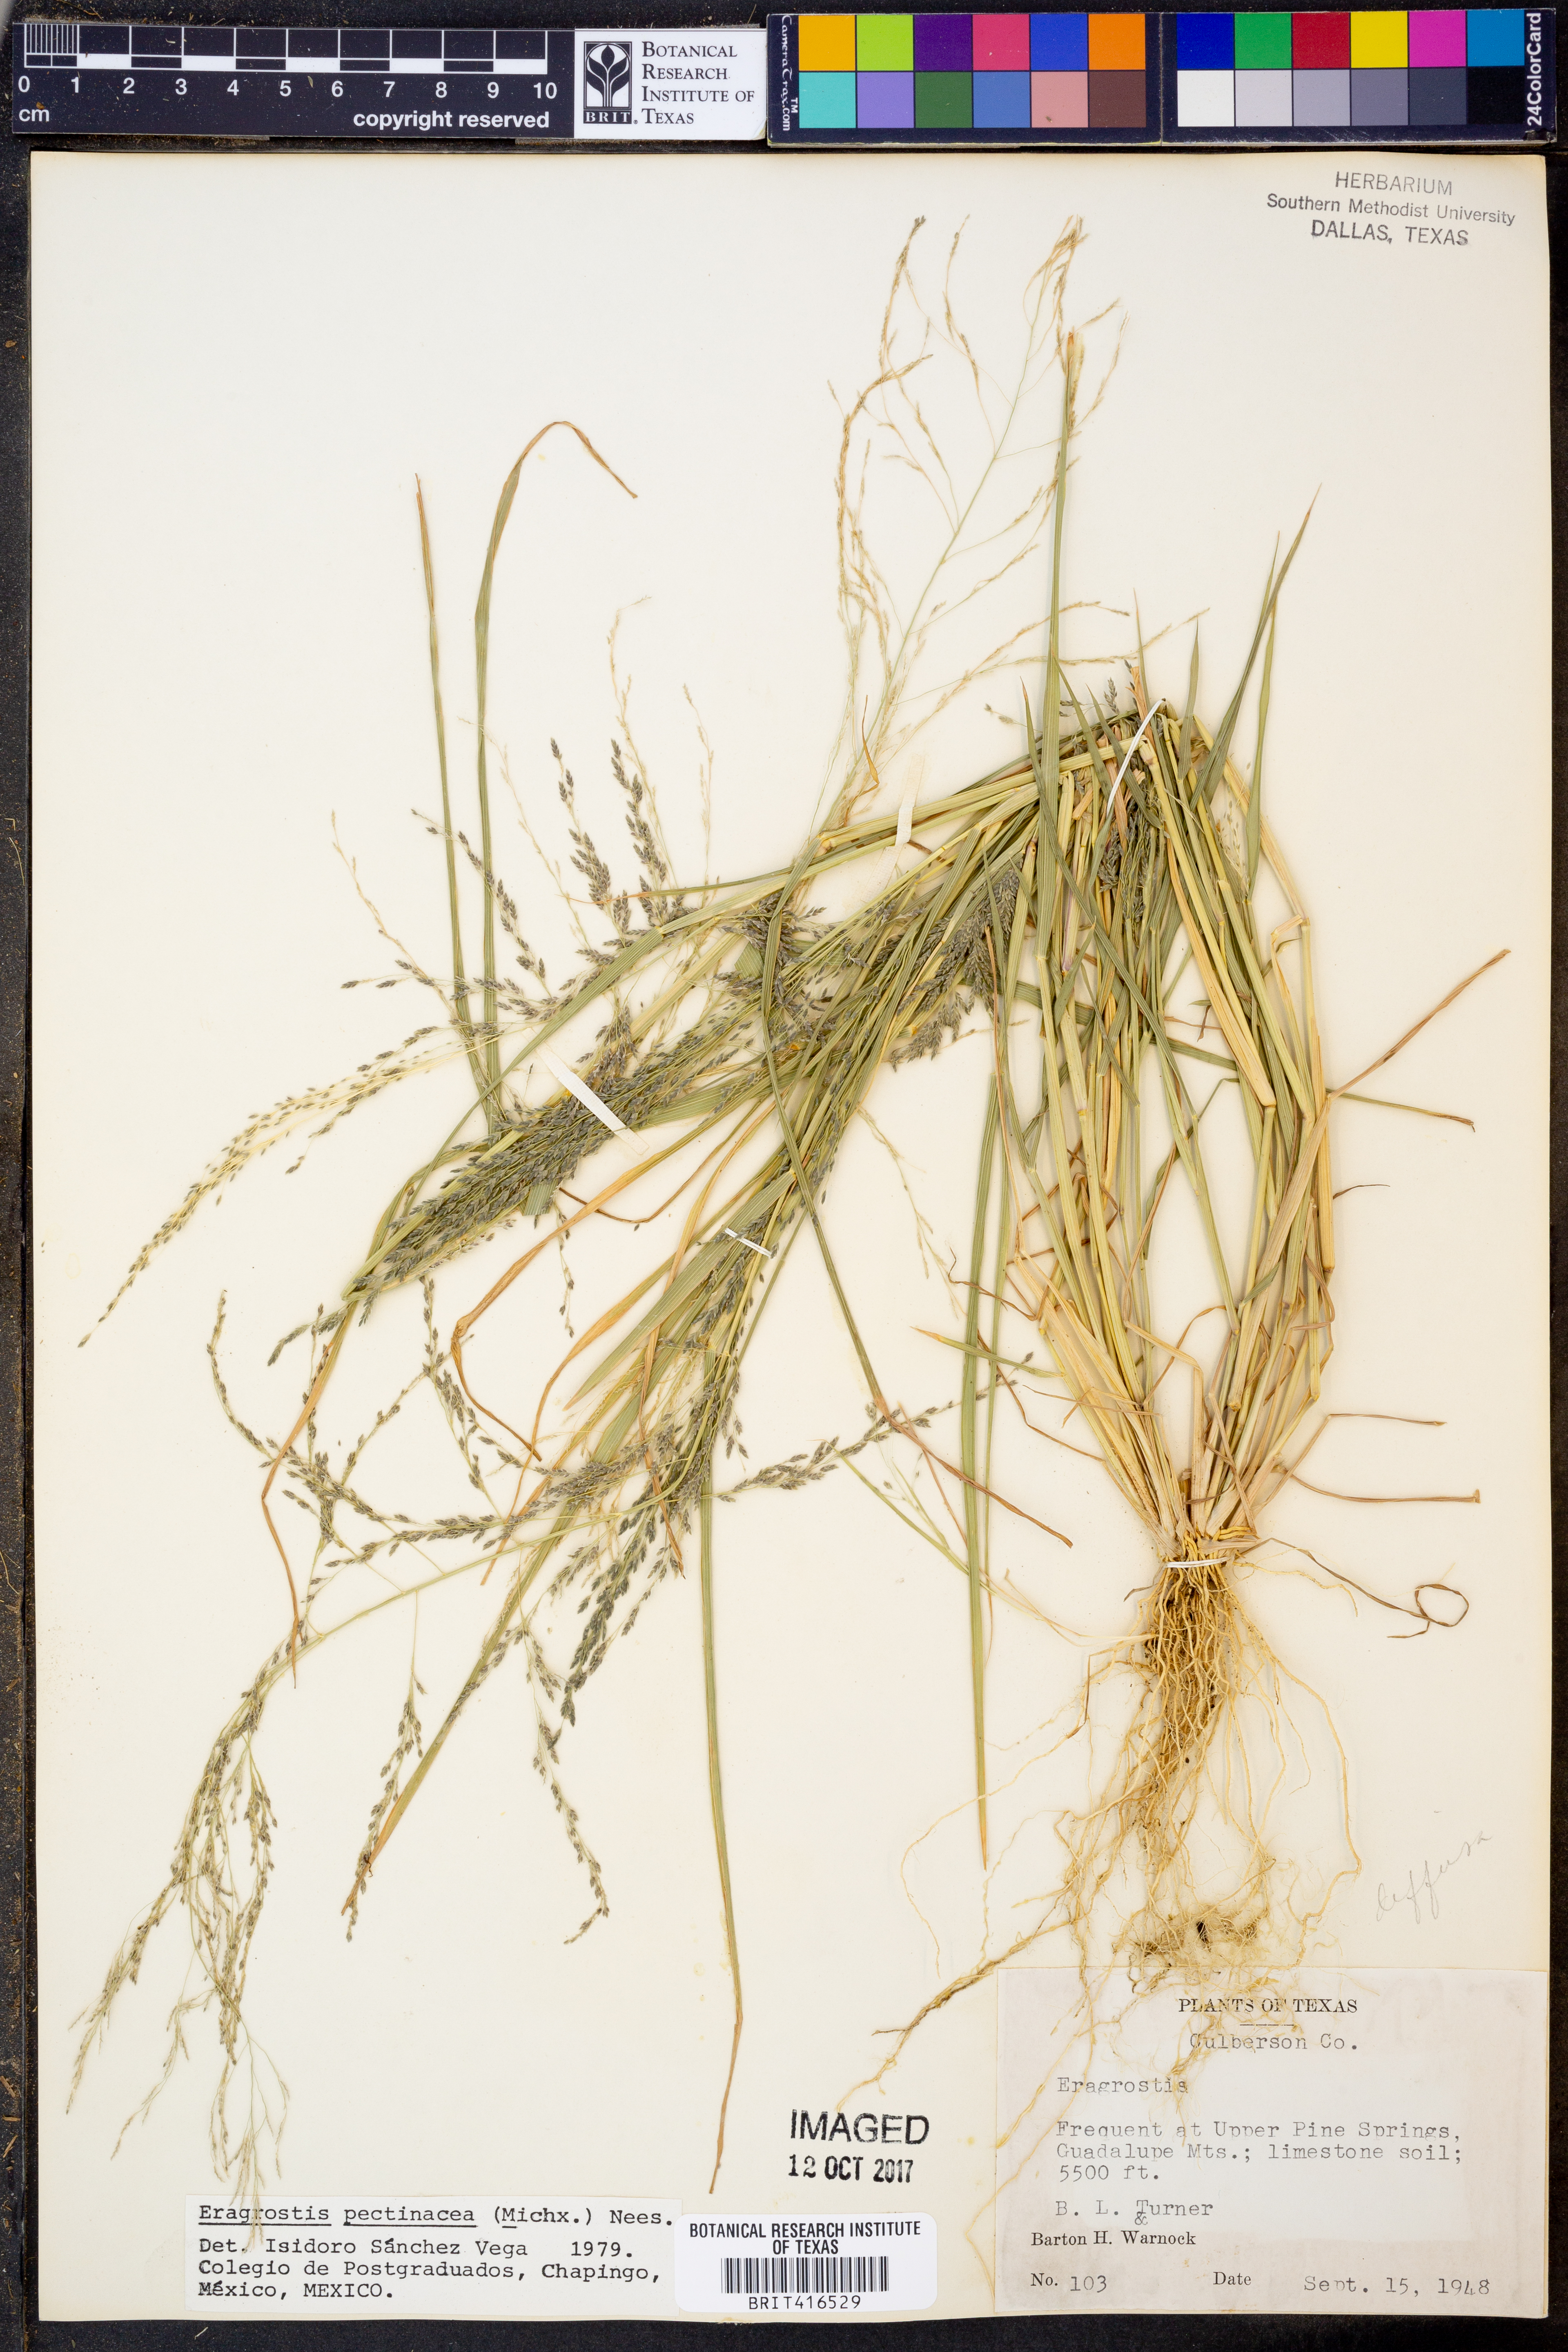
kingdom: Plantae
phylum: Tracheophyta
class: Liliopsida
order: Poales
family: Poaceae
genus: Eragrostis
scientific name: Eragrostis pectinacea
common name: Tufted lovegrass
